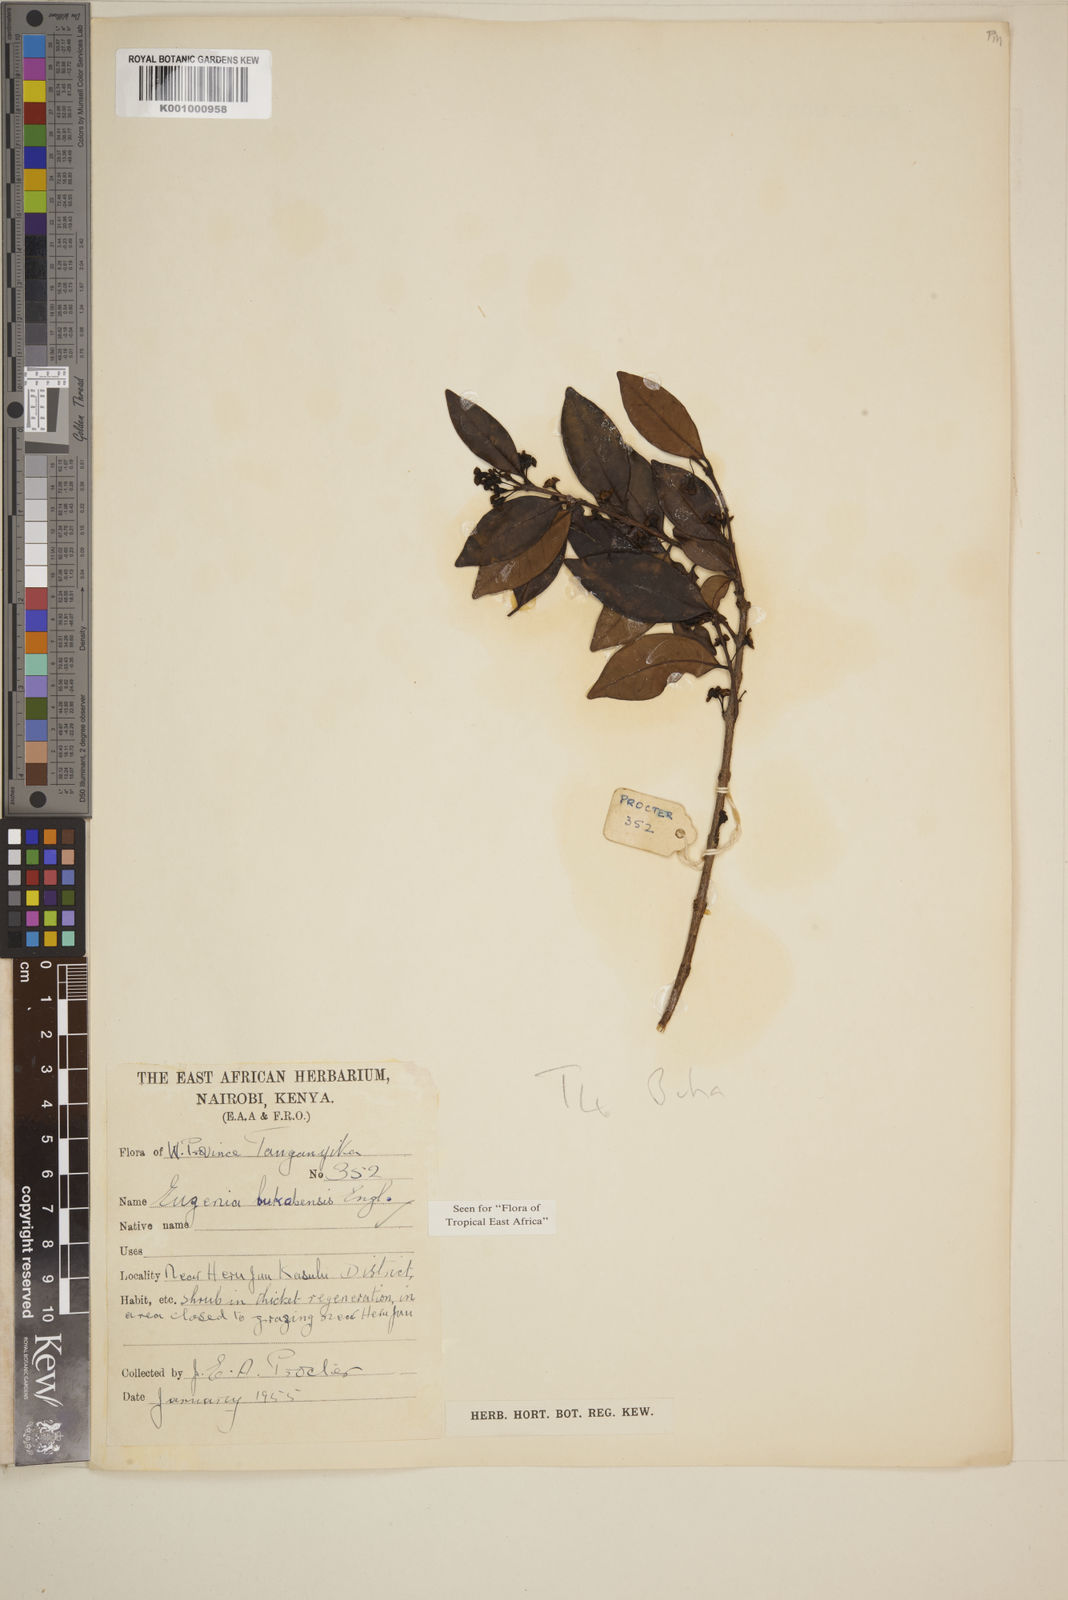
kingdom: Plantae
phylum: Tracheophyta
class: Magnoliopsida
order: Myrtales
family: Myrtaceae
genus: Eugenia
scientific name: Eugenia bukobensis
